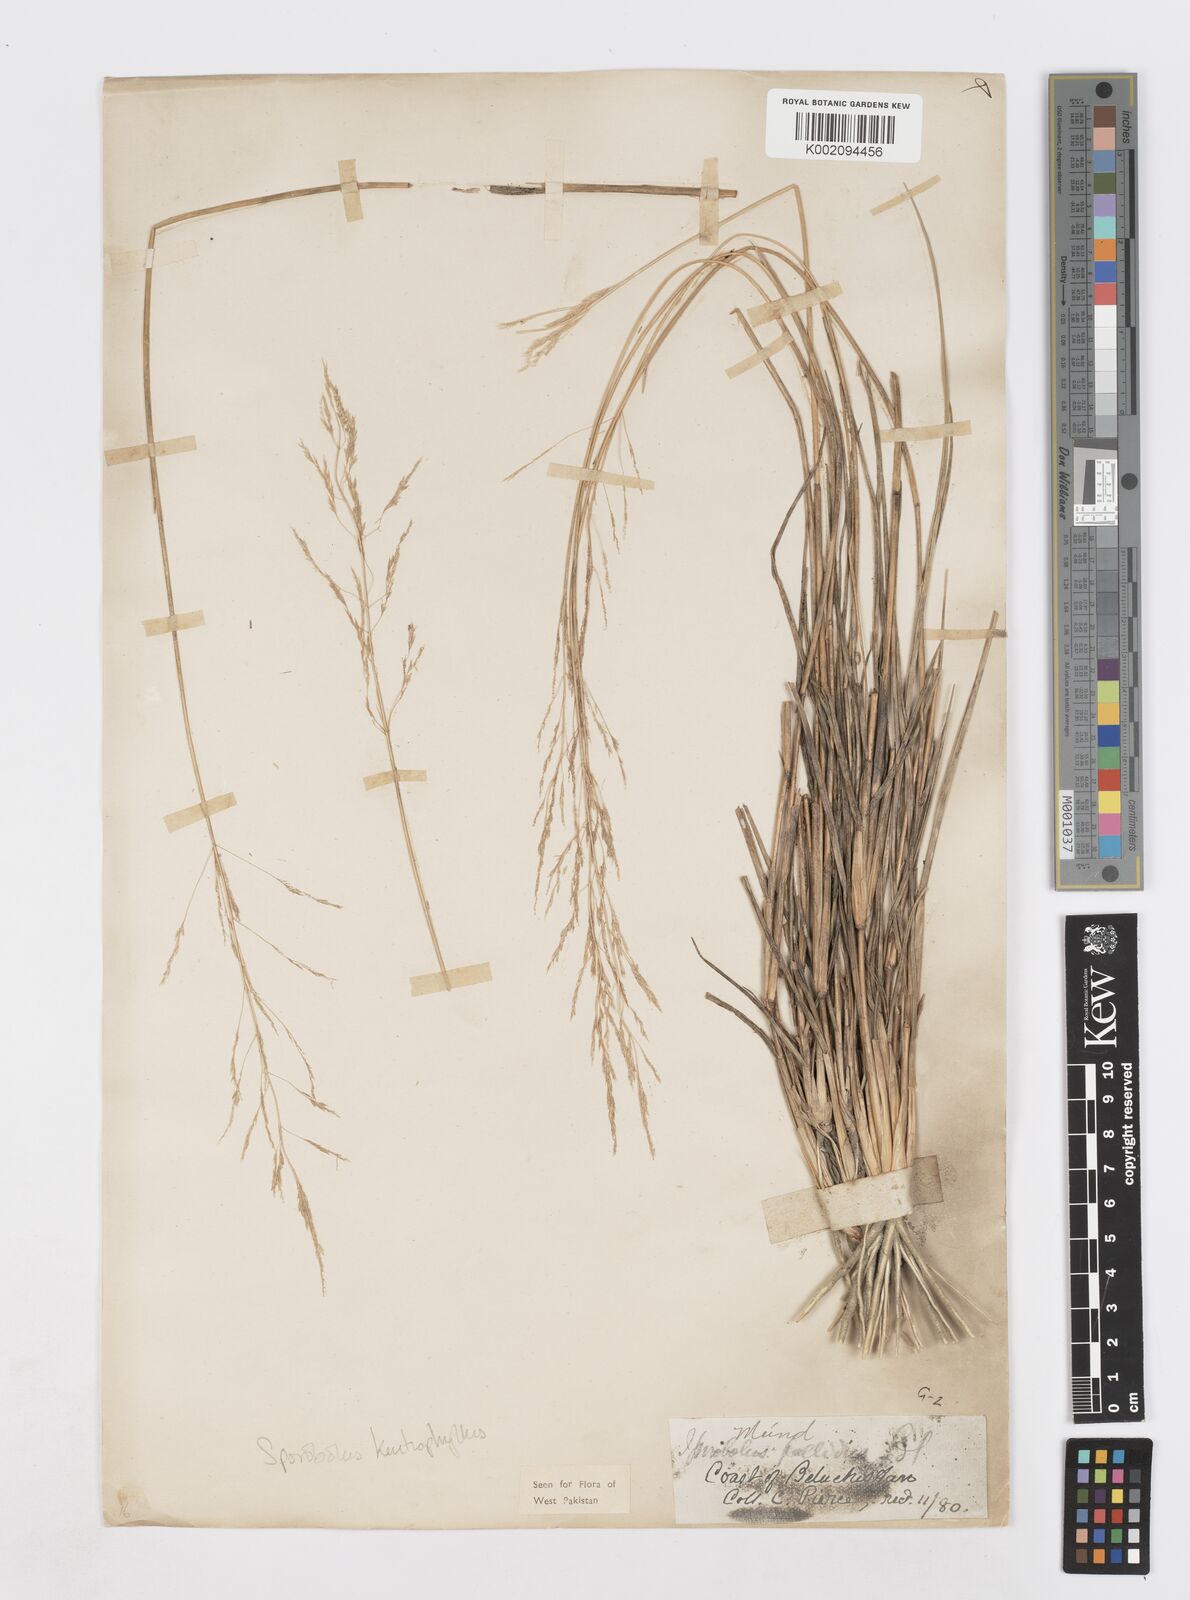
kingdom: Plantae
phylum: Tracheophyta
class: Liliopsida
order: Poales
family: Poaceae
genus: Sporobolus
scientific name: Sporobolus ioclados
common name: Pan dropseed
